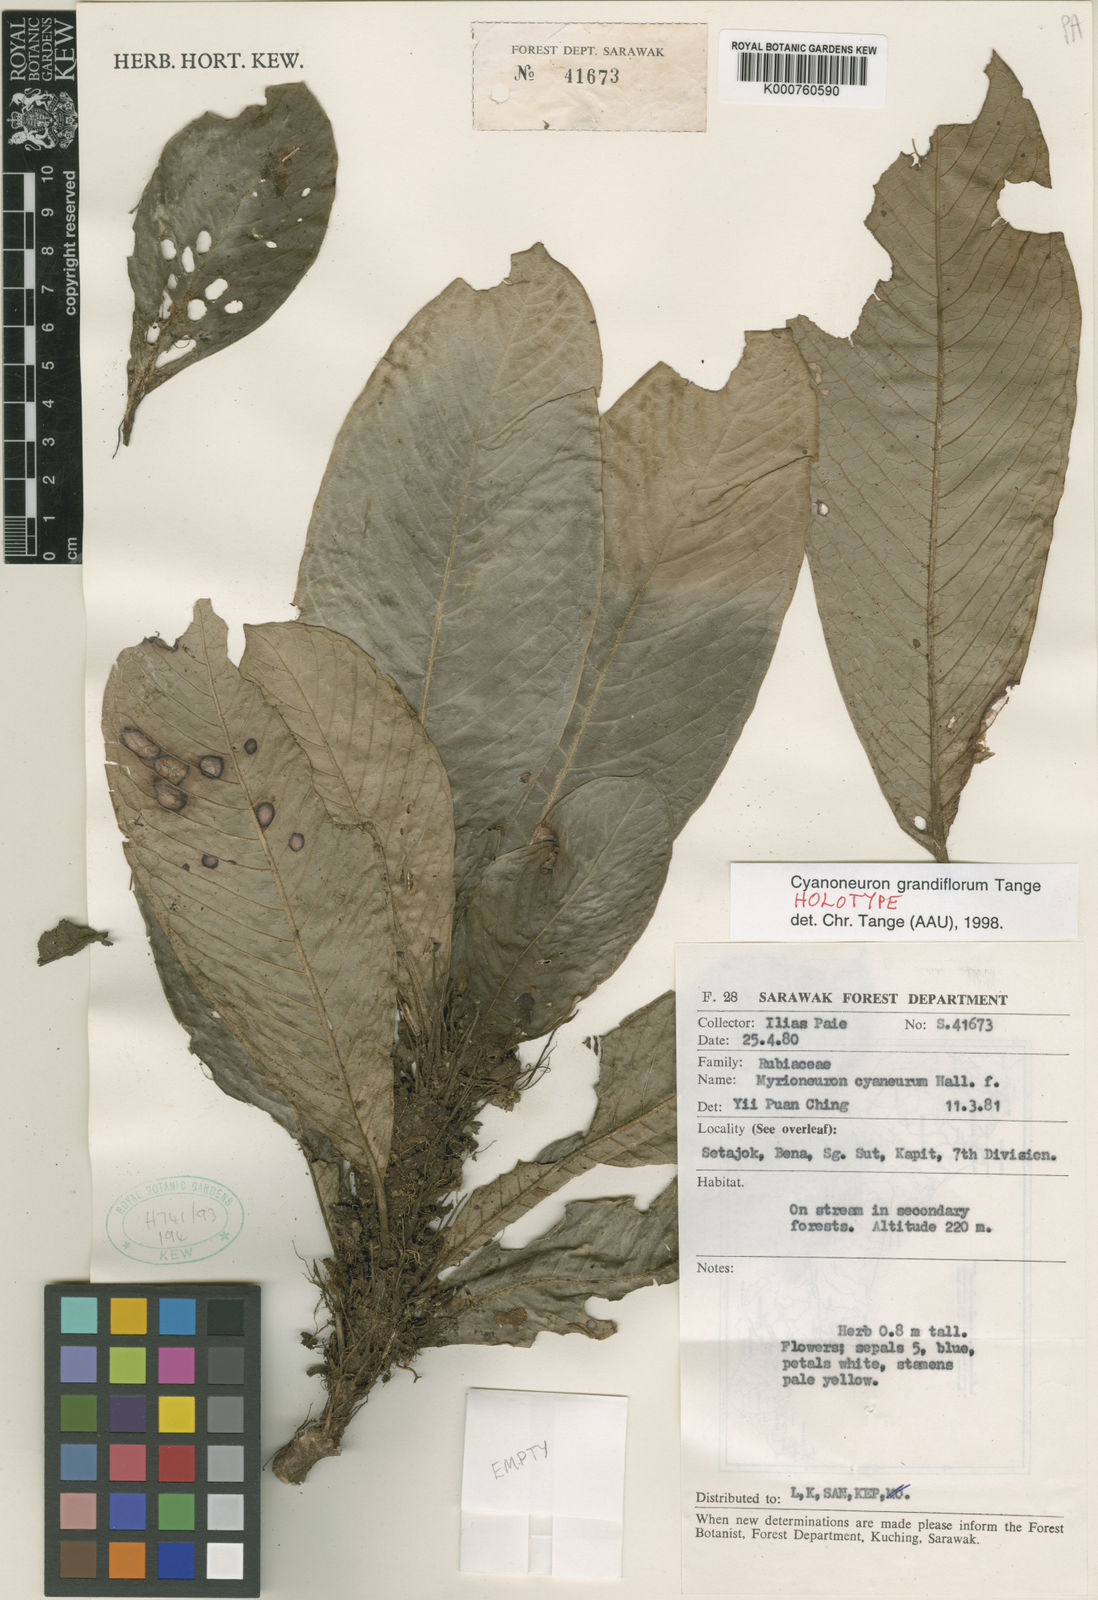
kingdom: Plantae
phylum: Tracheophyta
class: Magnoliopsida
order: Gentianales
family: Rubiaceae
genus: Cyanoneuron
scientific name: Cyanoneuron grandiflorum
